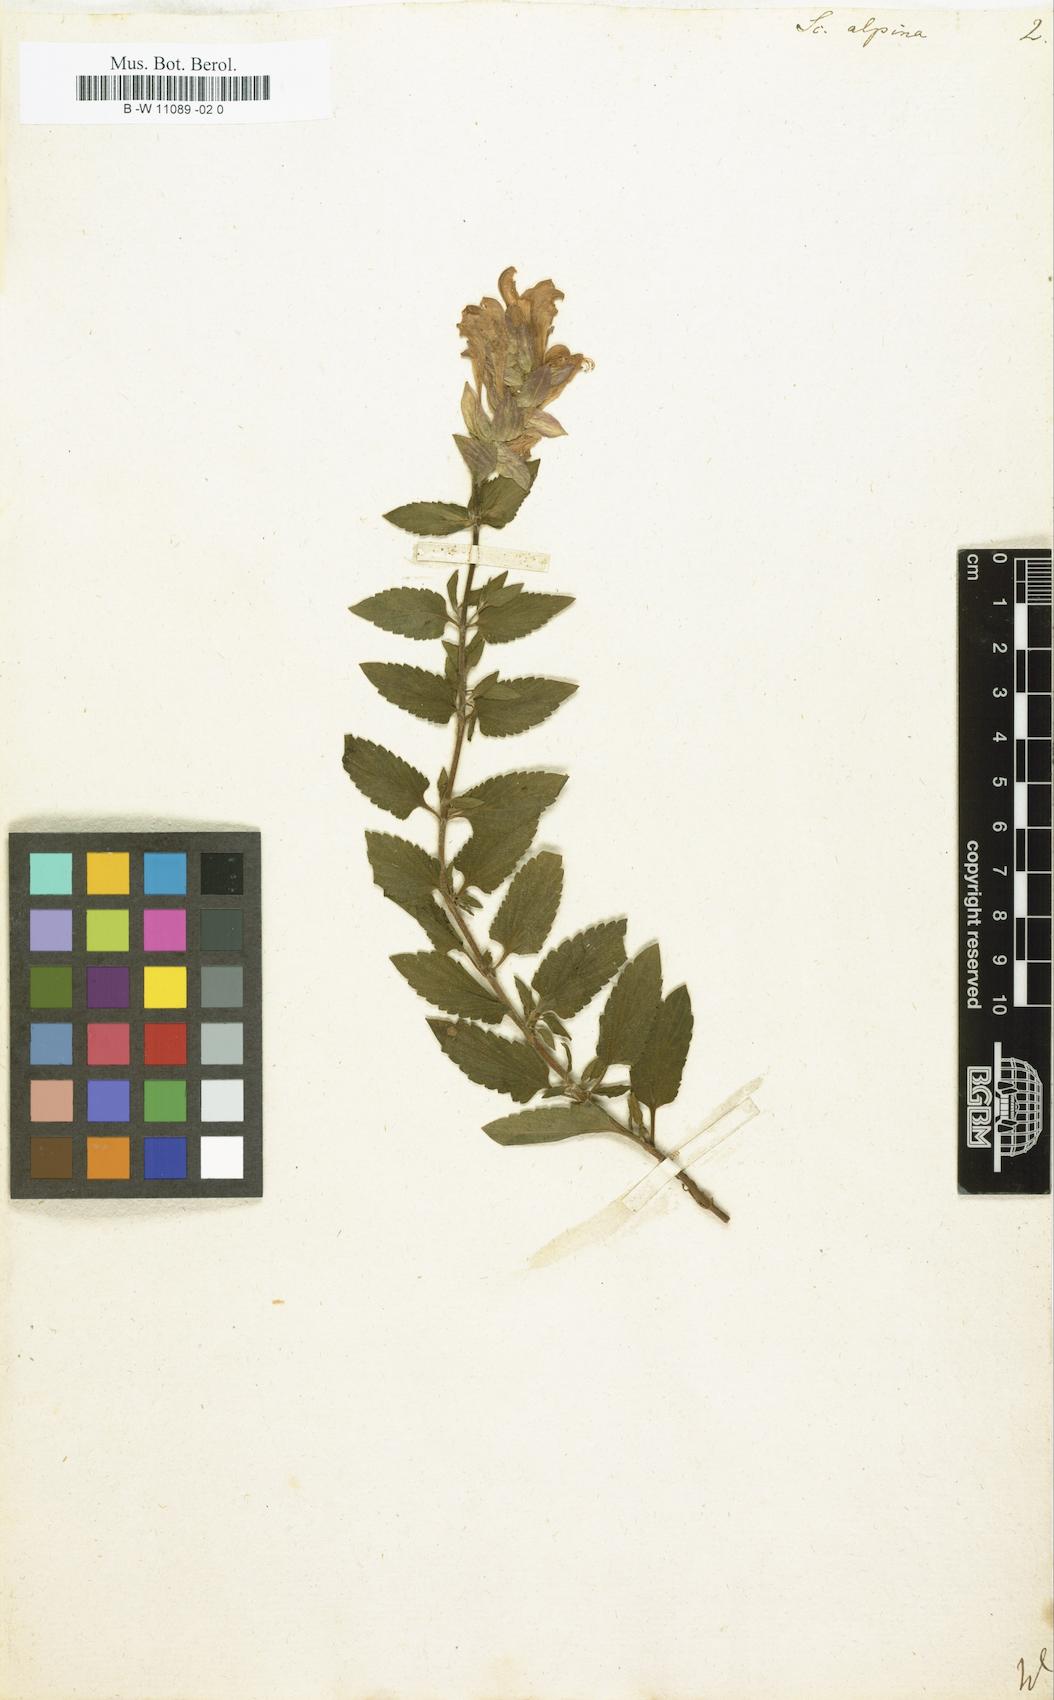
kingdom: Plantae
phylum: Tracheophyta
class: Magnoliopsida
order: Lamiales
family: Lamiaceae
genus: Scutellaria
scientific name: Scutellaria alpina
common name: Alpine scullcap
